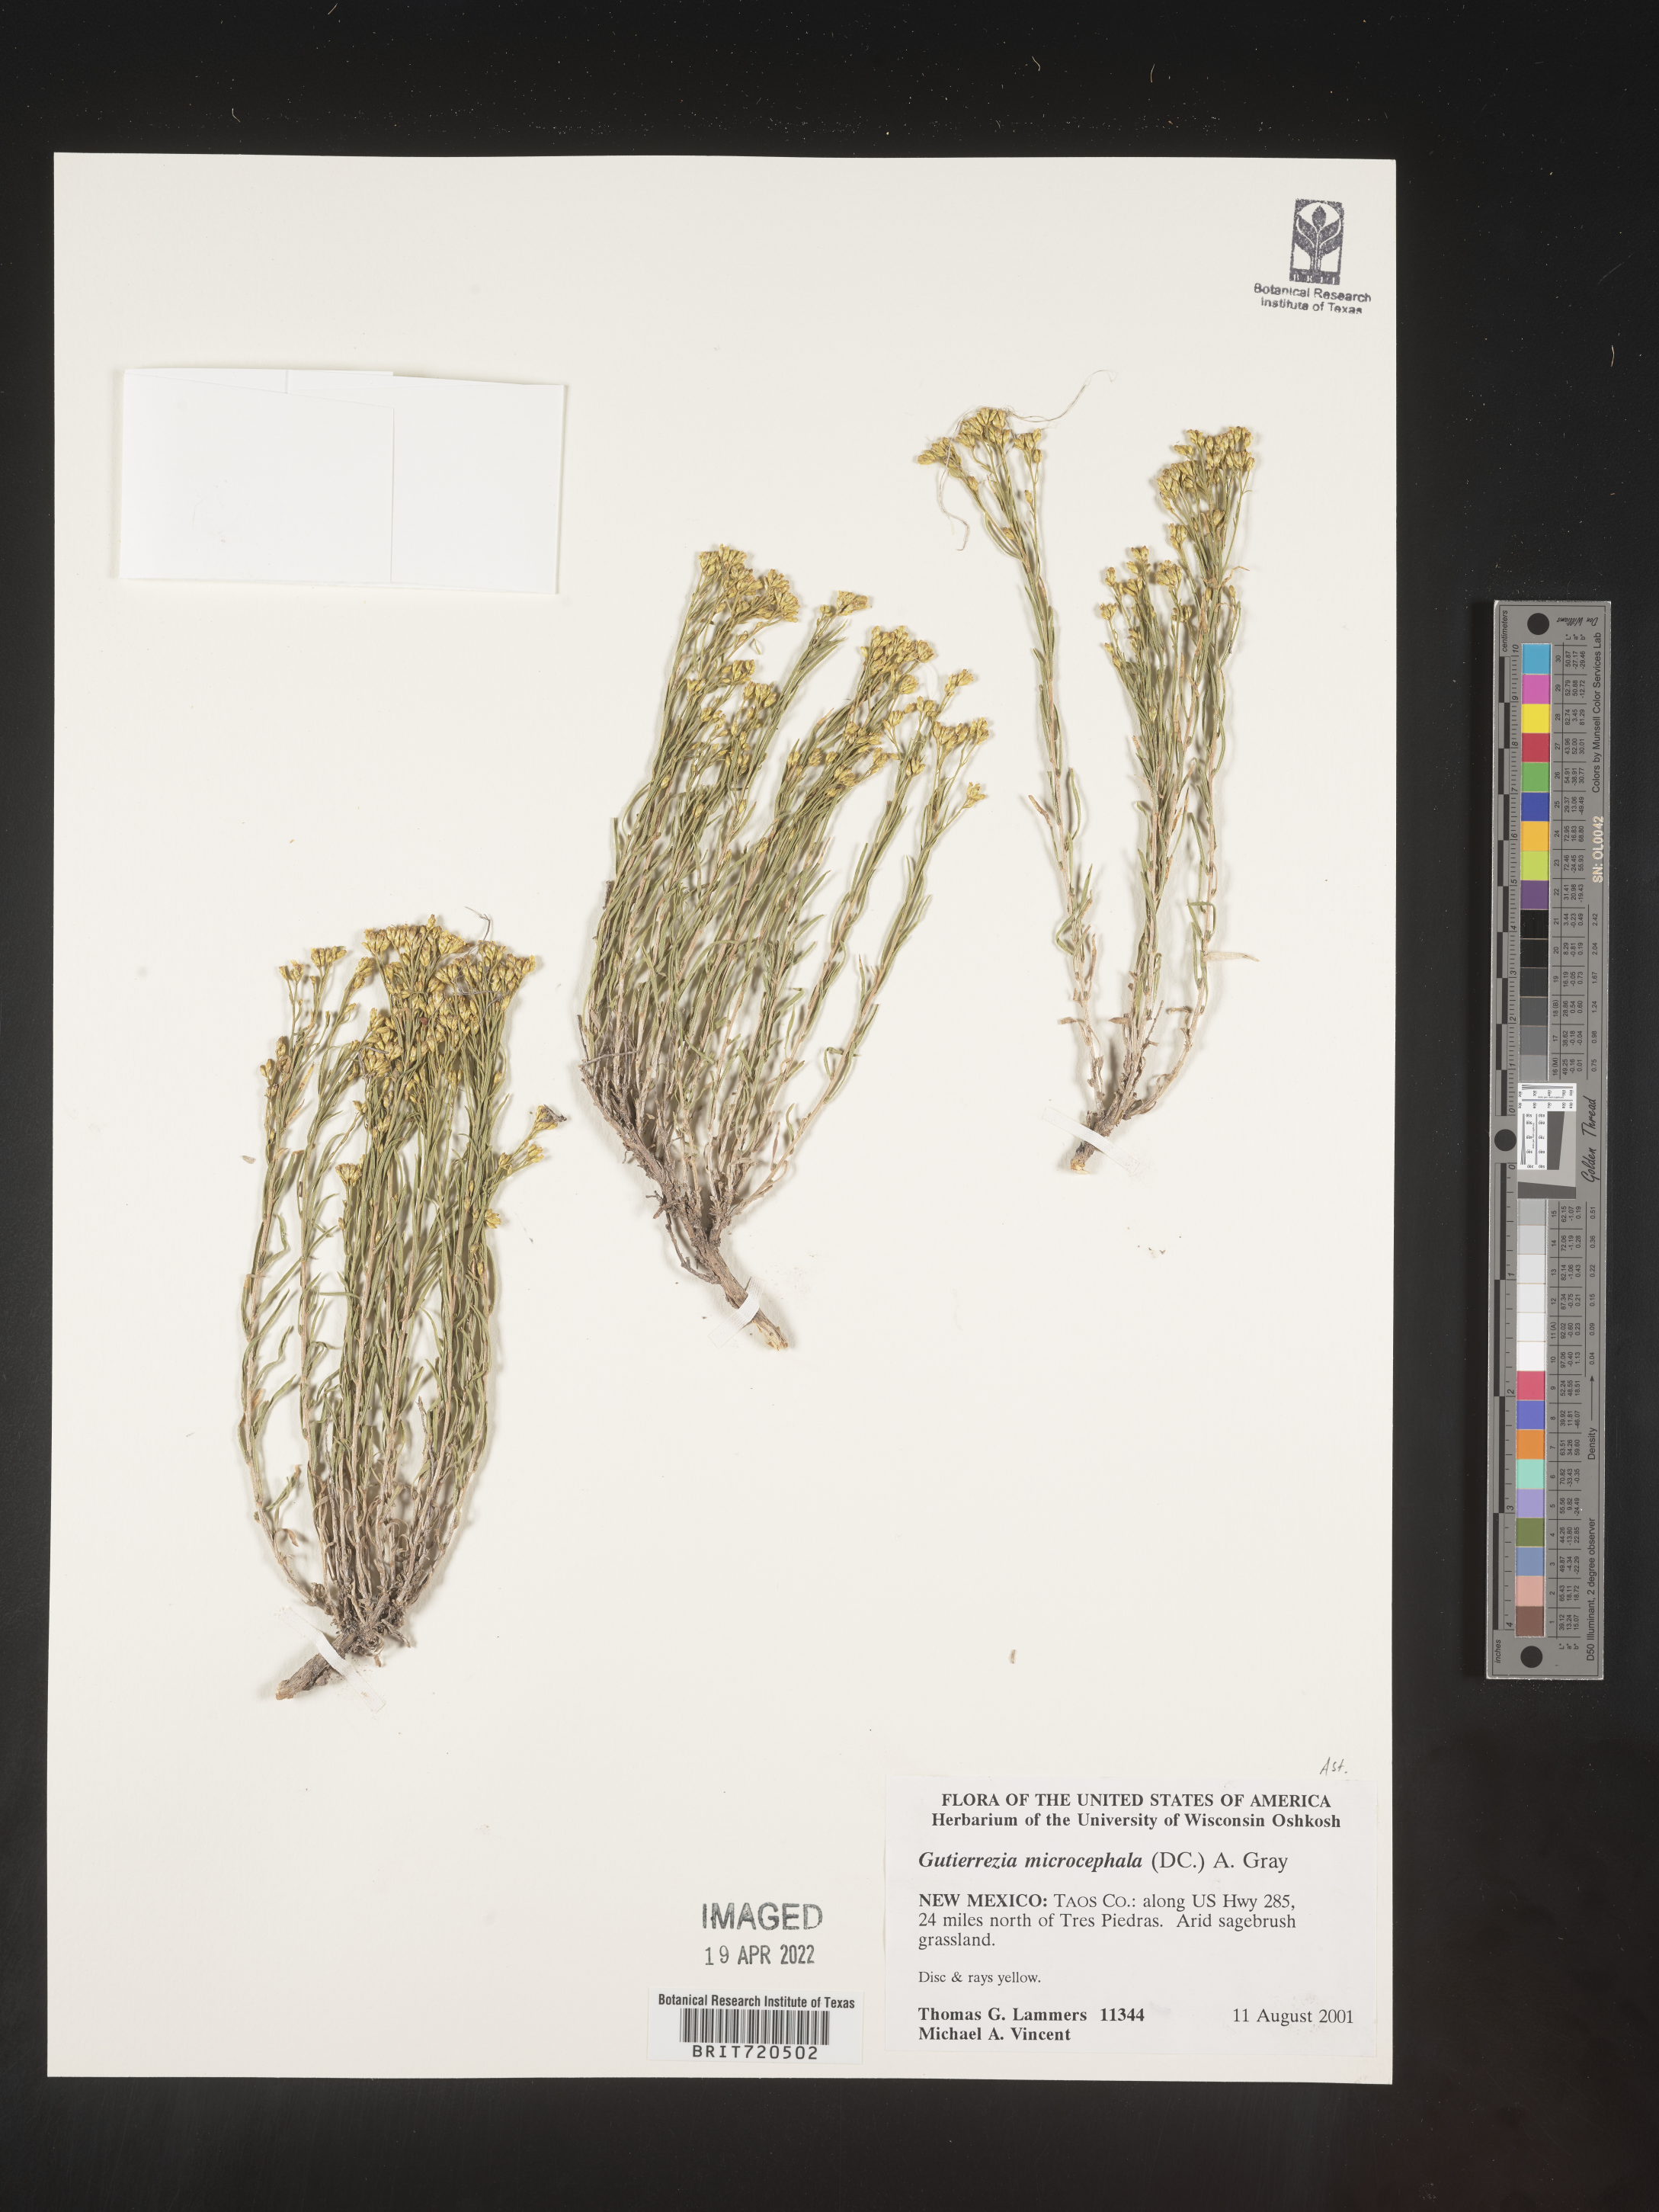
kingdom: Plantae
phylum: Tracheophyta
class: Magnoliopsida
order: Asterales
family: Asteraceae
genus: Gutierrezia
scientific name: Gutierrezia microcephala
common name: Thread snakeweed
